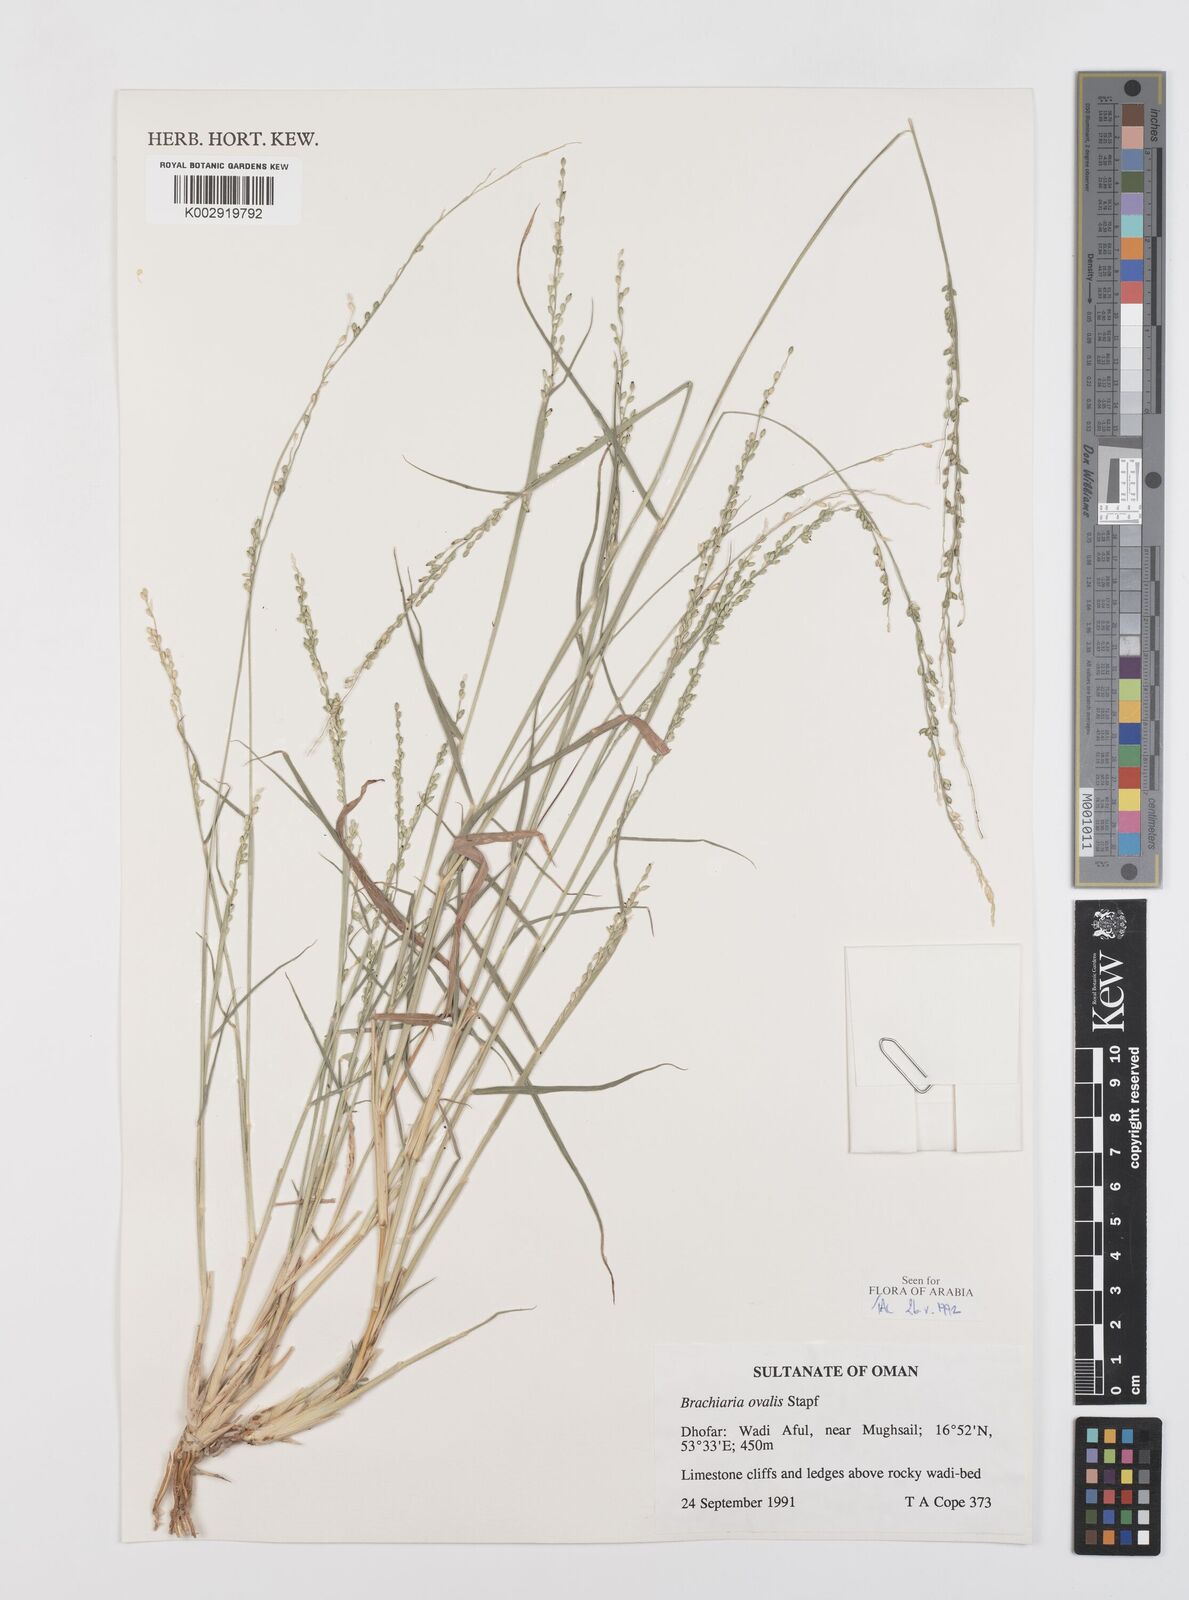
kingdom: Plantae
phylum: Tracheophyta
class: Liliopsida
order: Poales
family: Poaceae
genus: Urochloa
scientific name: Urochloa ovalis
